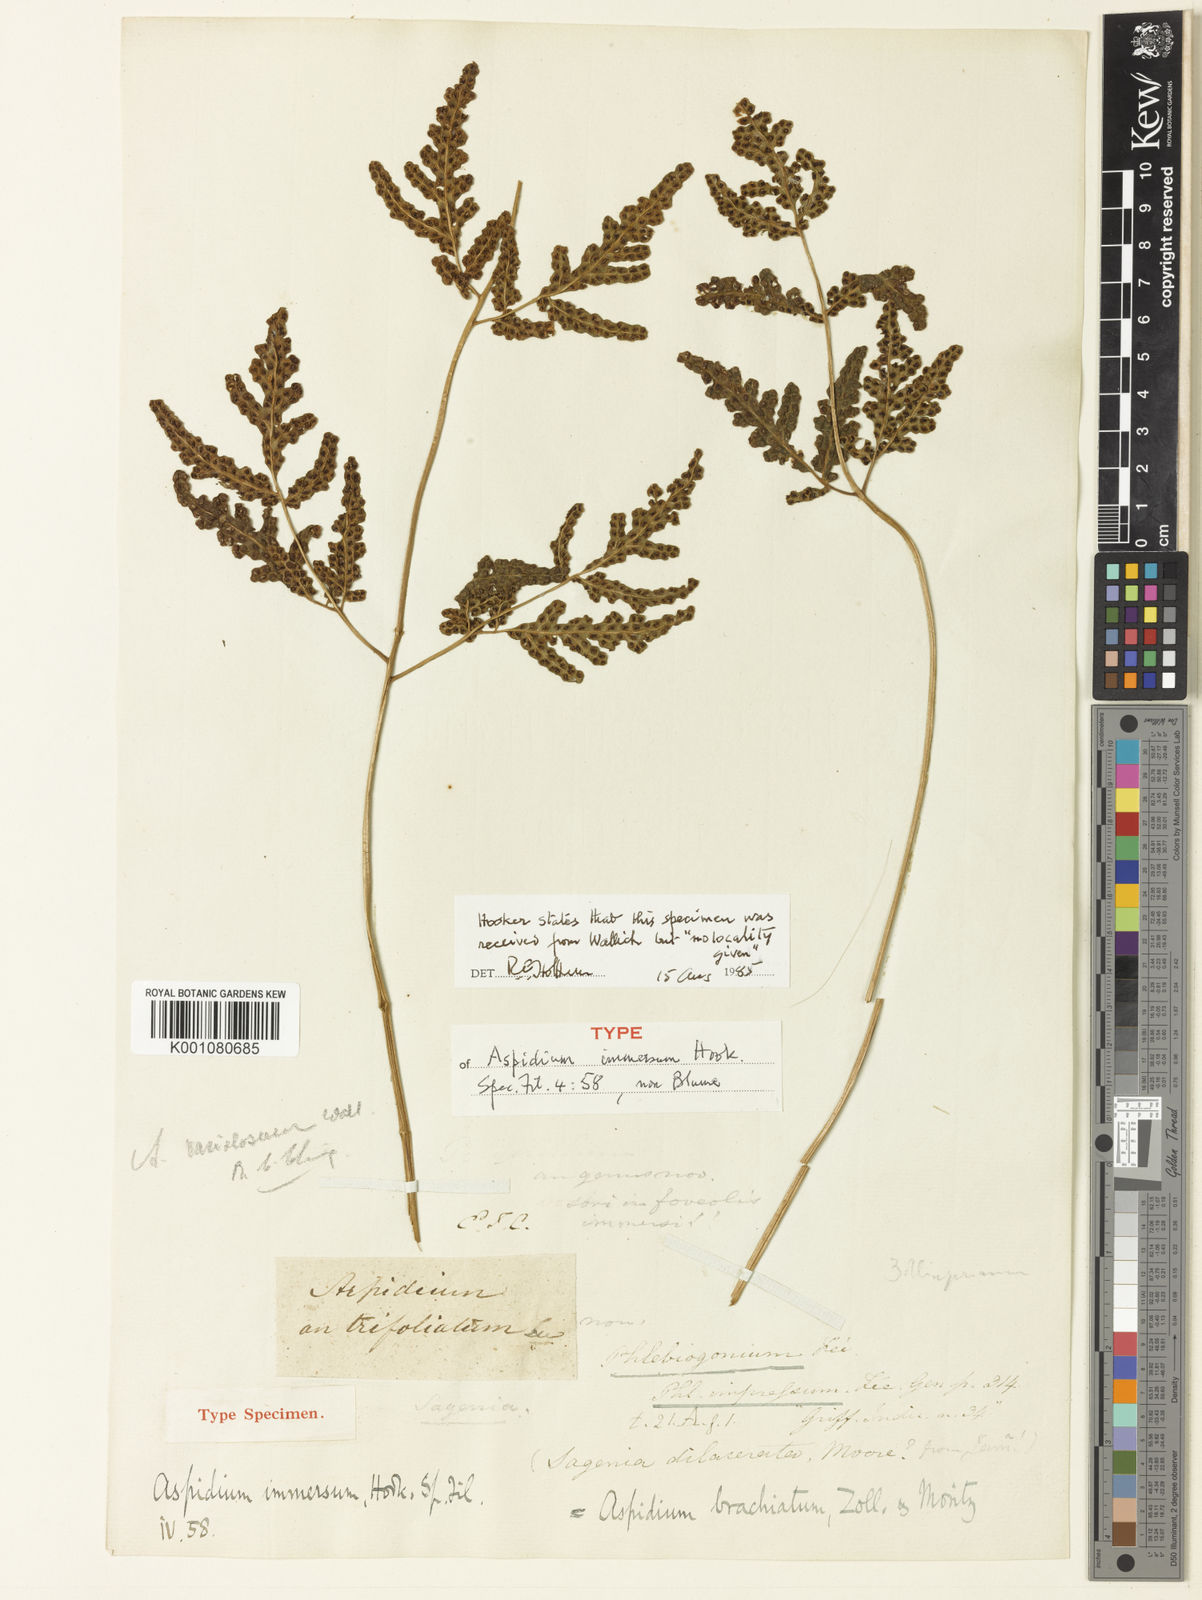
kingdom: Plantae
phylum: Tracheophyta
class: Polypodiopsida
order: Polypodiales
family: Tectariaceae
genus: Tectaria
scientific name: Tectaria
